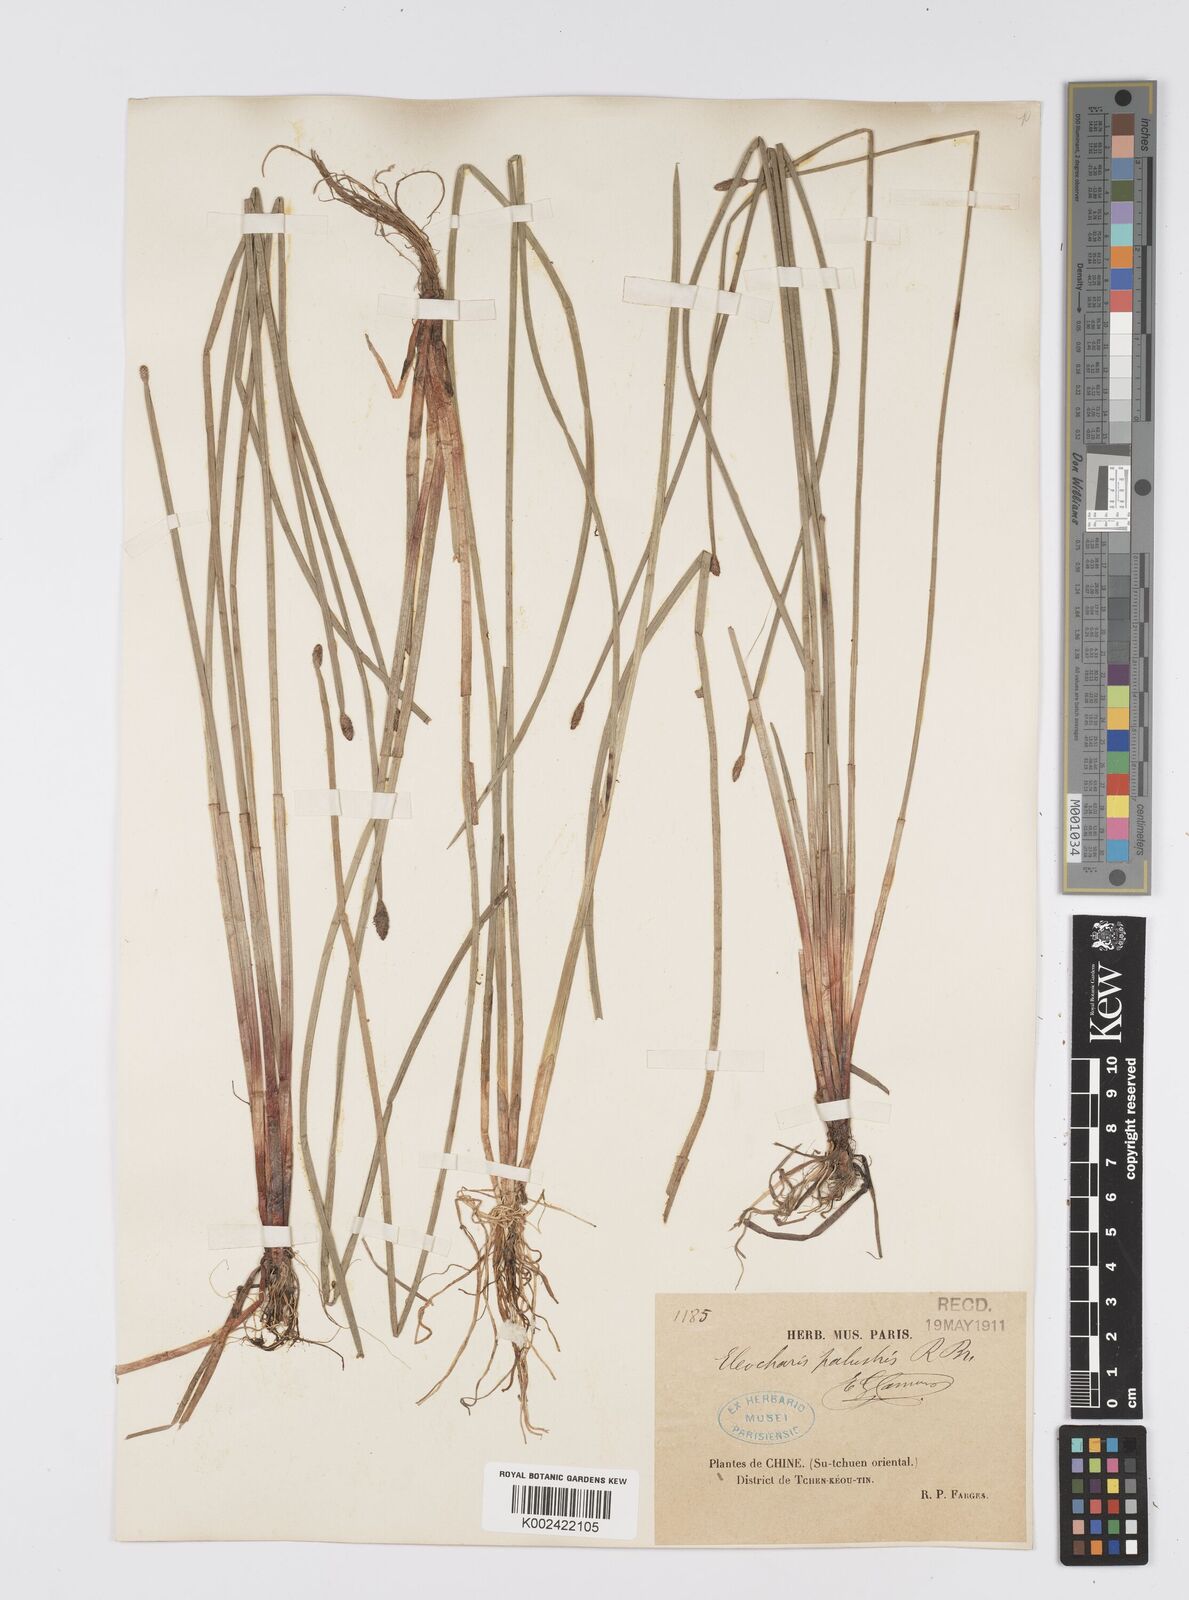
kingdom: Plantae
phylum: Tracheophyta
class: Liliopsida
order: Poales
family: Cyperaceae
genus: Eleocharis
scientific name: Eleocharis palustris
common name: Common spike-rush
